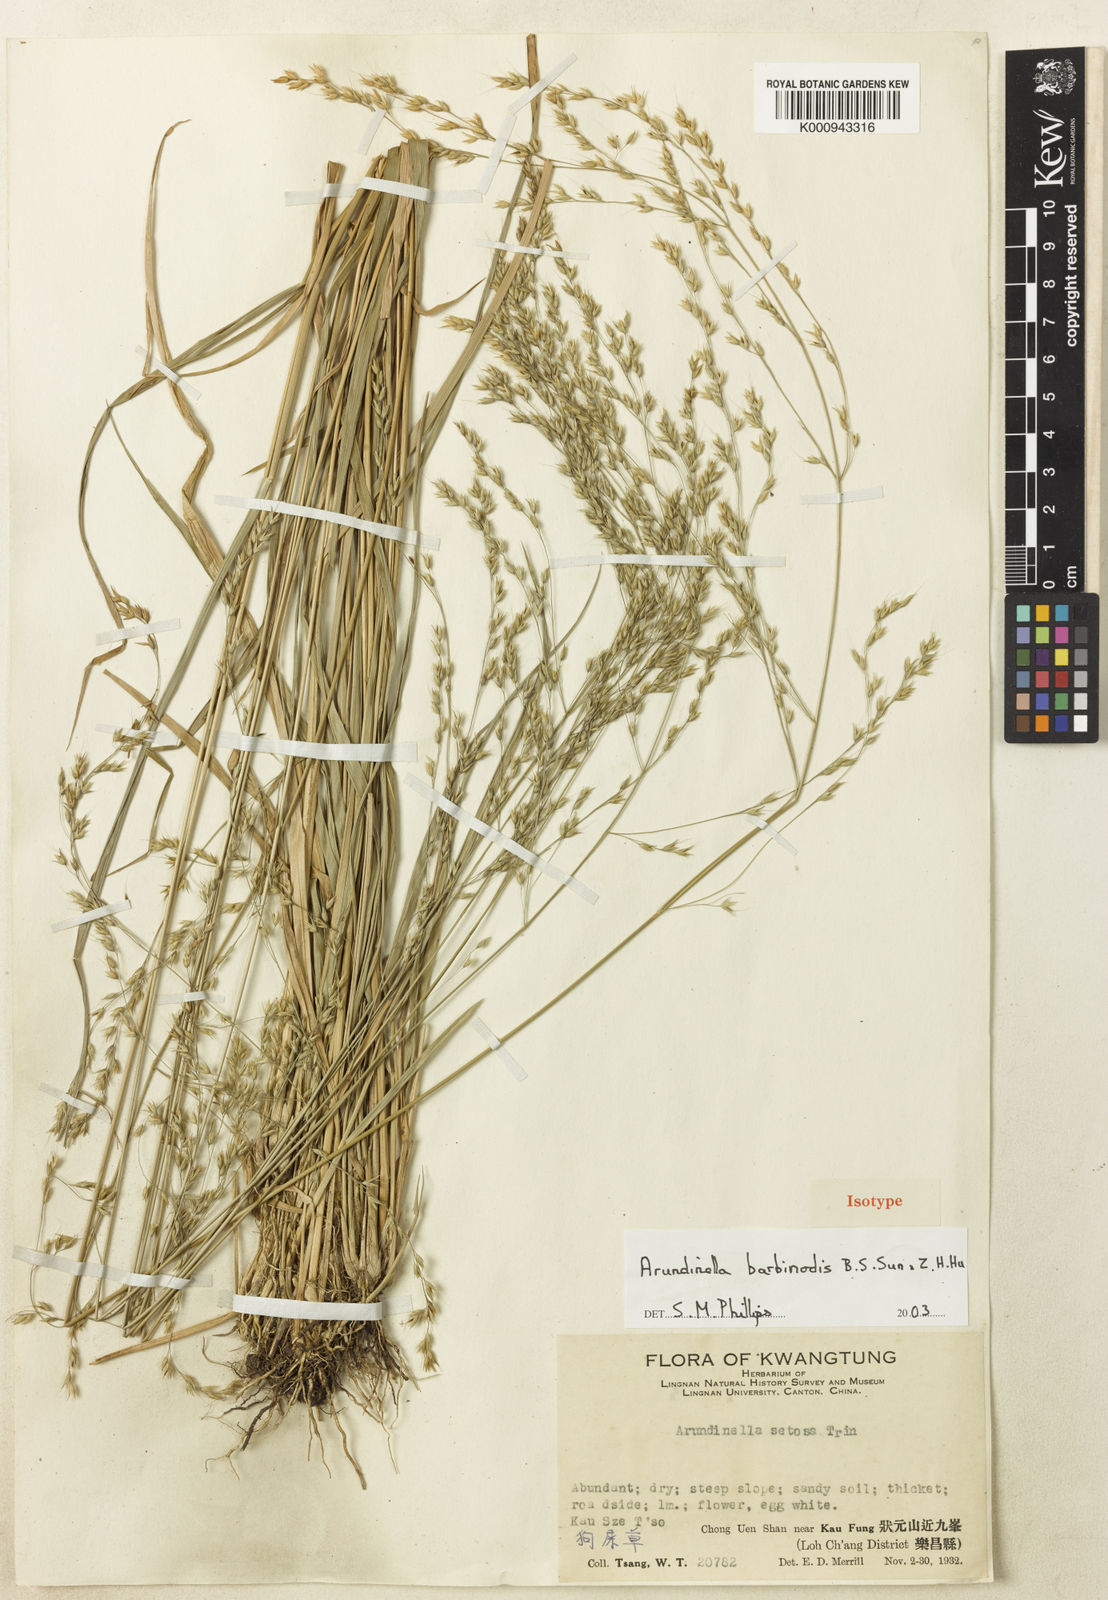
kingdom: Plantae
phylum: Tracheophyta
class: Liliopsida
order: Poales
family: Poaceae
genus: Arundinella
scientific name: Arundinella barbinodis ex
